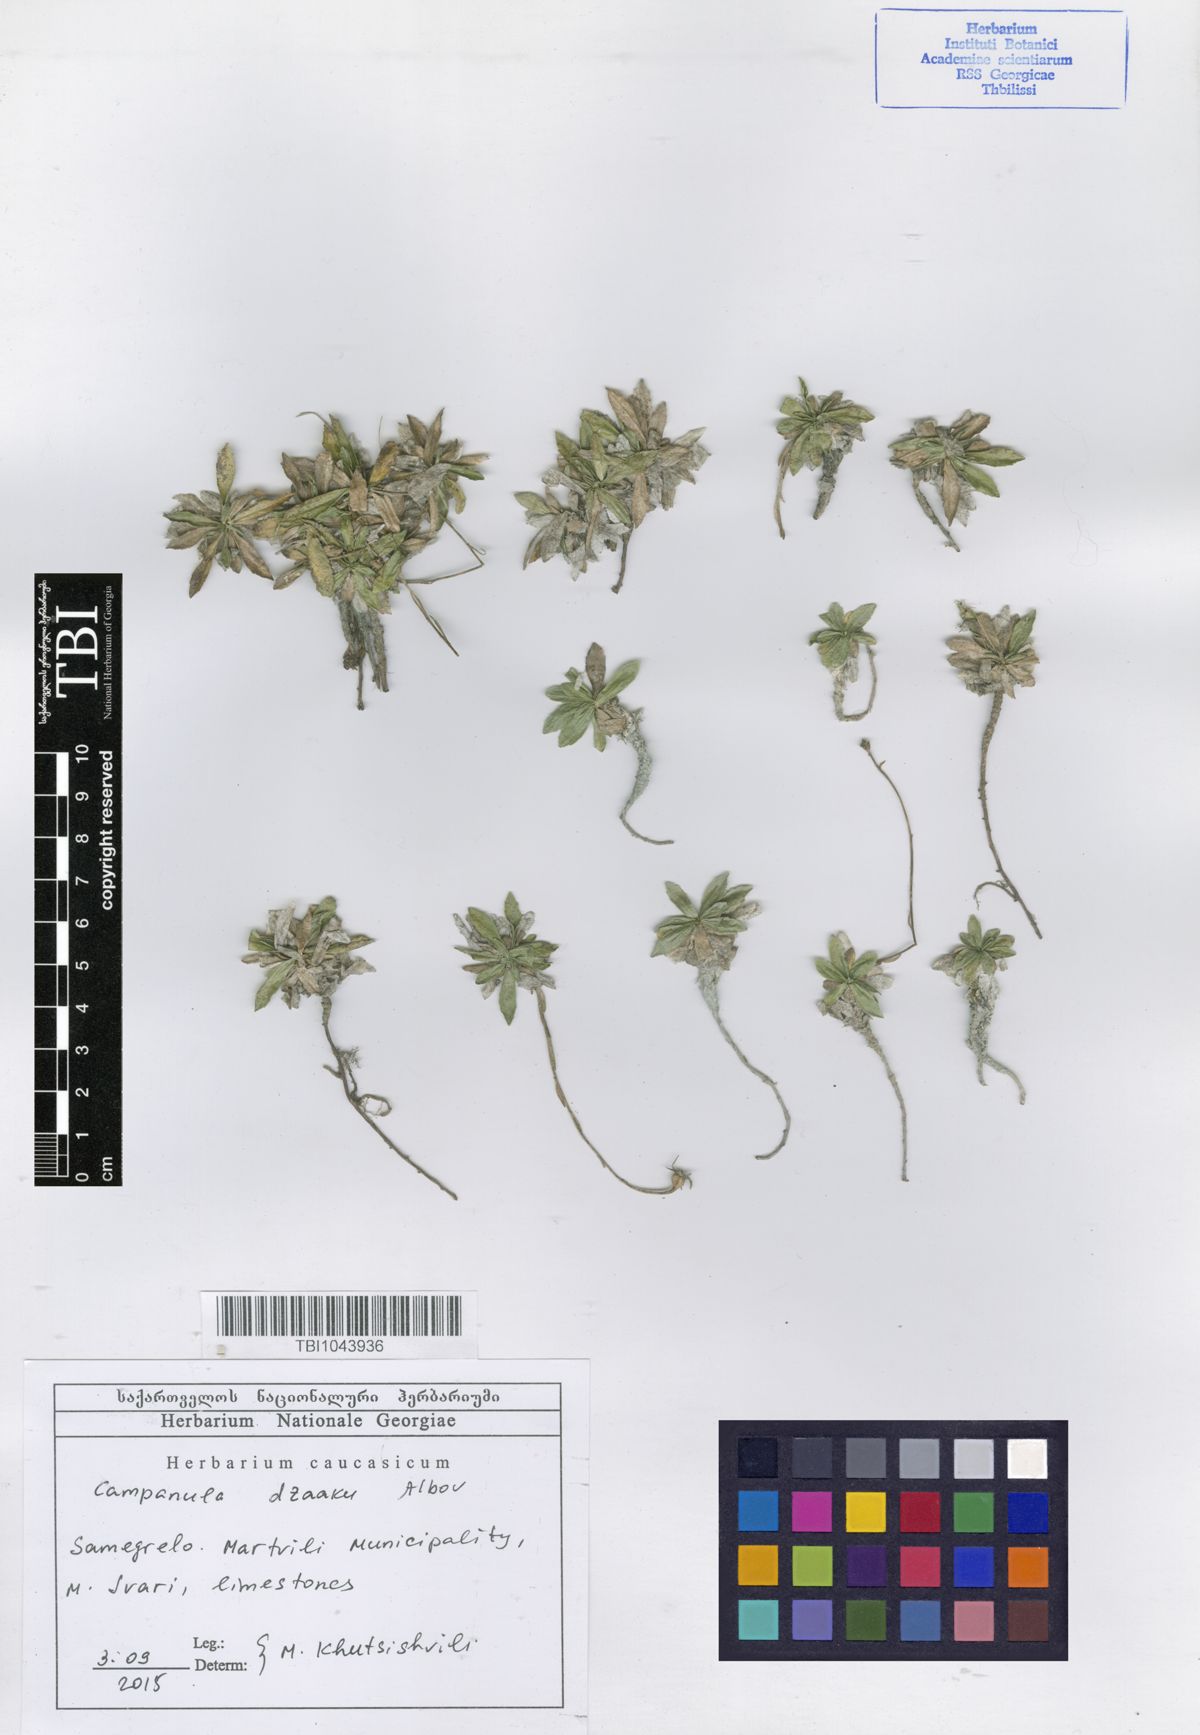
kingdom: Plantae
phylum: Tracheophyta
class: Magnoliopsida
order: Asterales
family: Campanulaceae
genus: Campanula
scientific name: Campanula dzaaku
